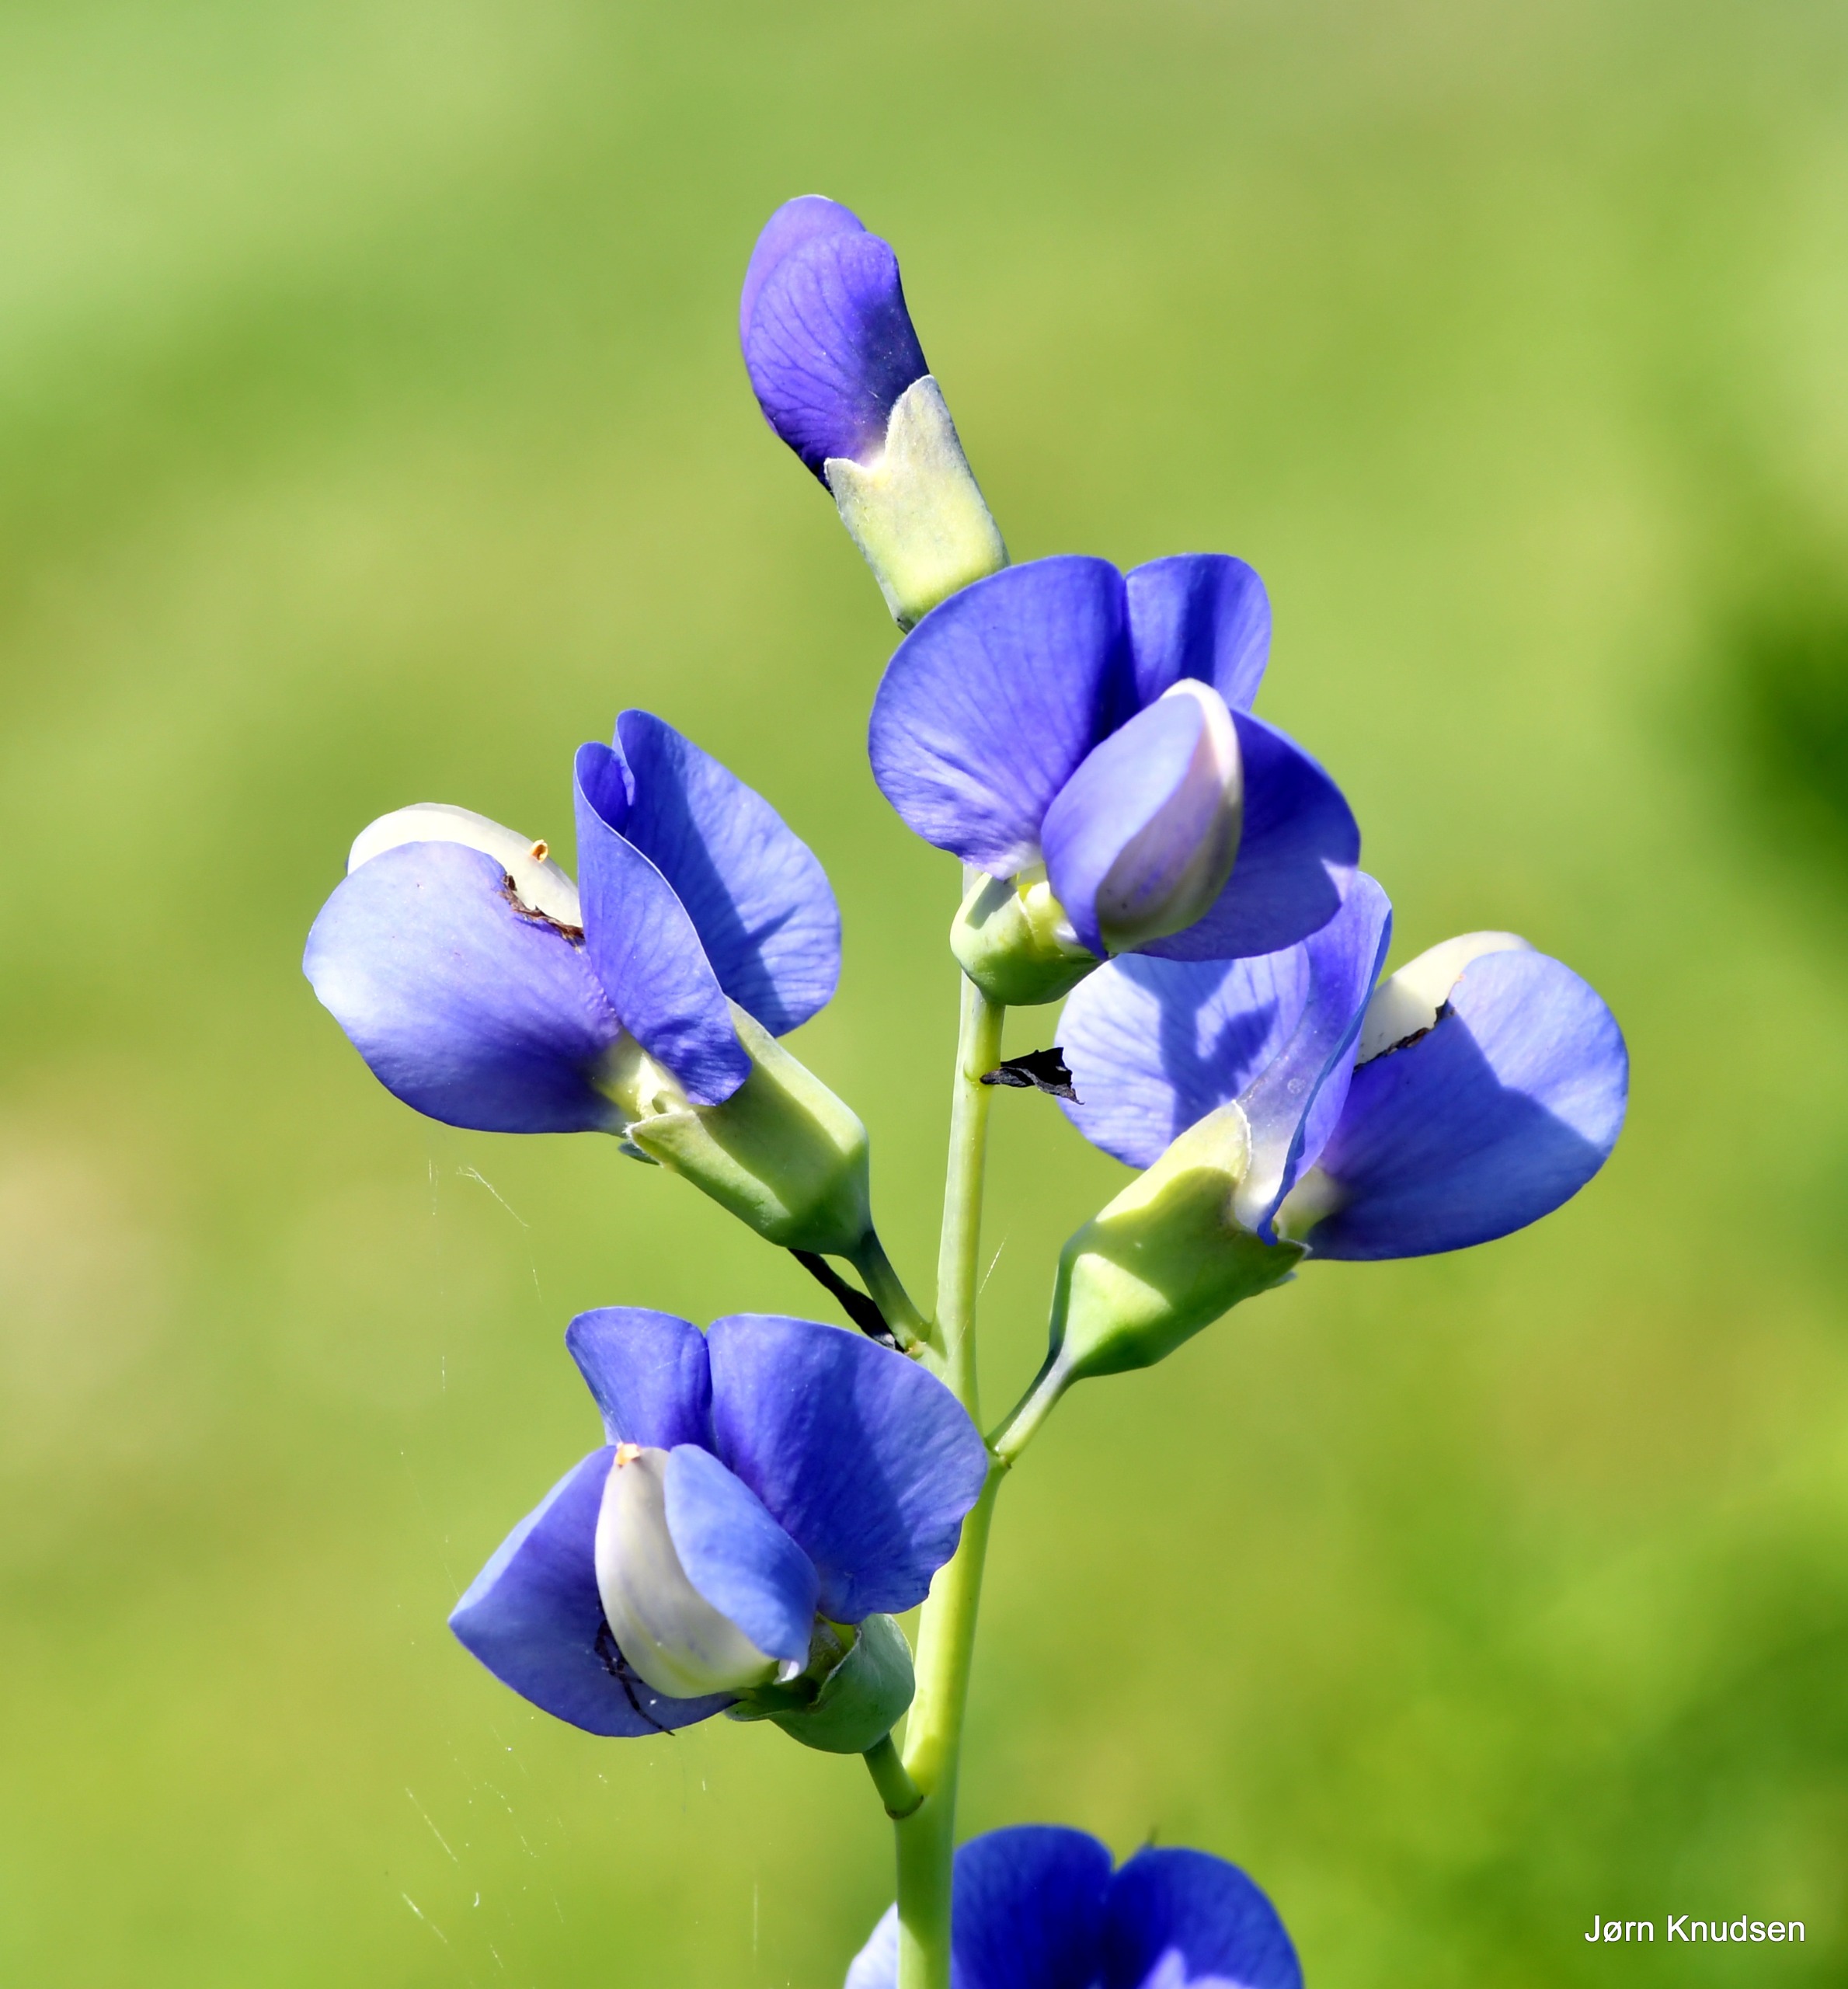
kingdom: Plantae
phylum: Tracheophyta
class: Magnoliopsida
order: Fabales
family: Fabaceae
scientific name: Fabaceae
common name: Ærteblomstfamilien
